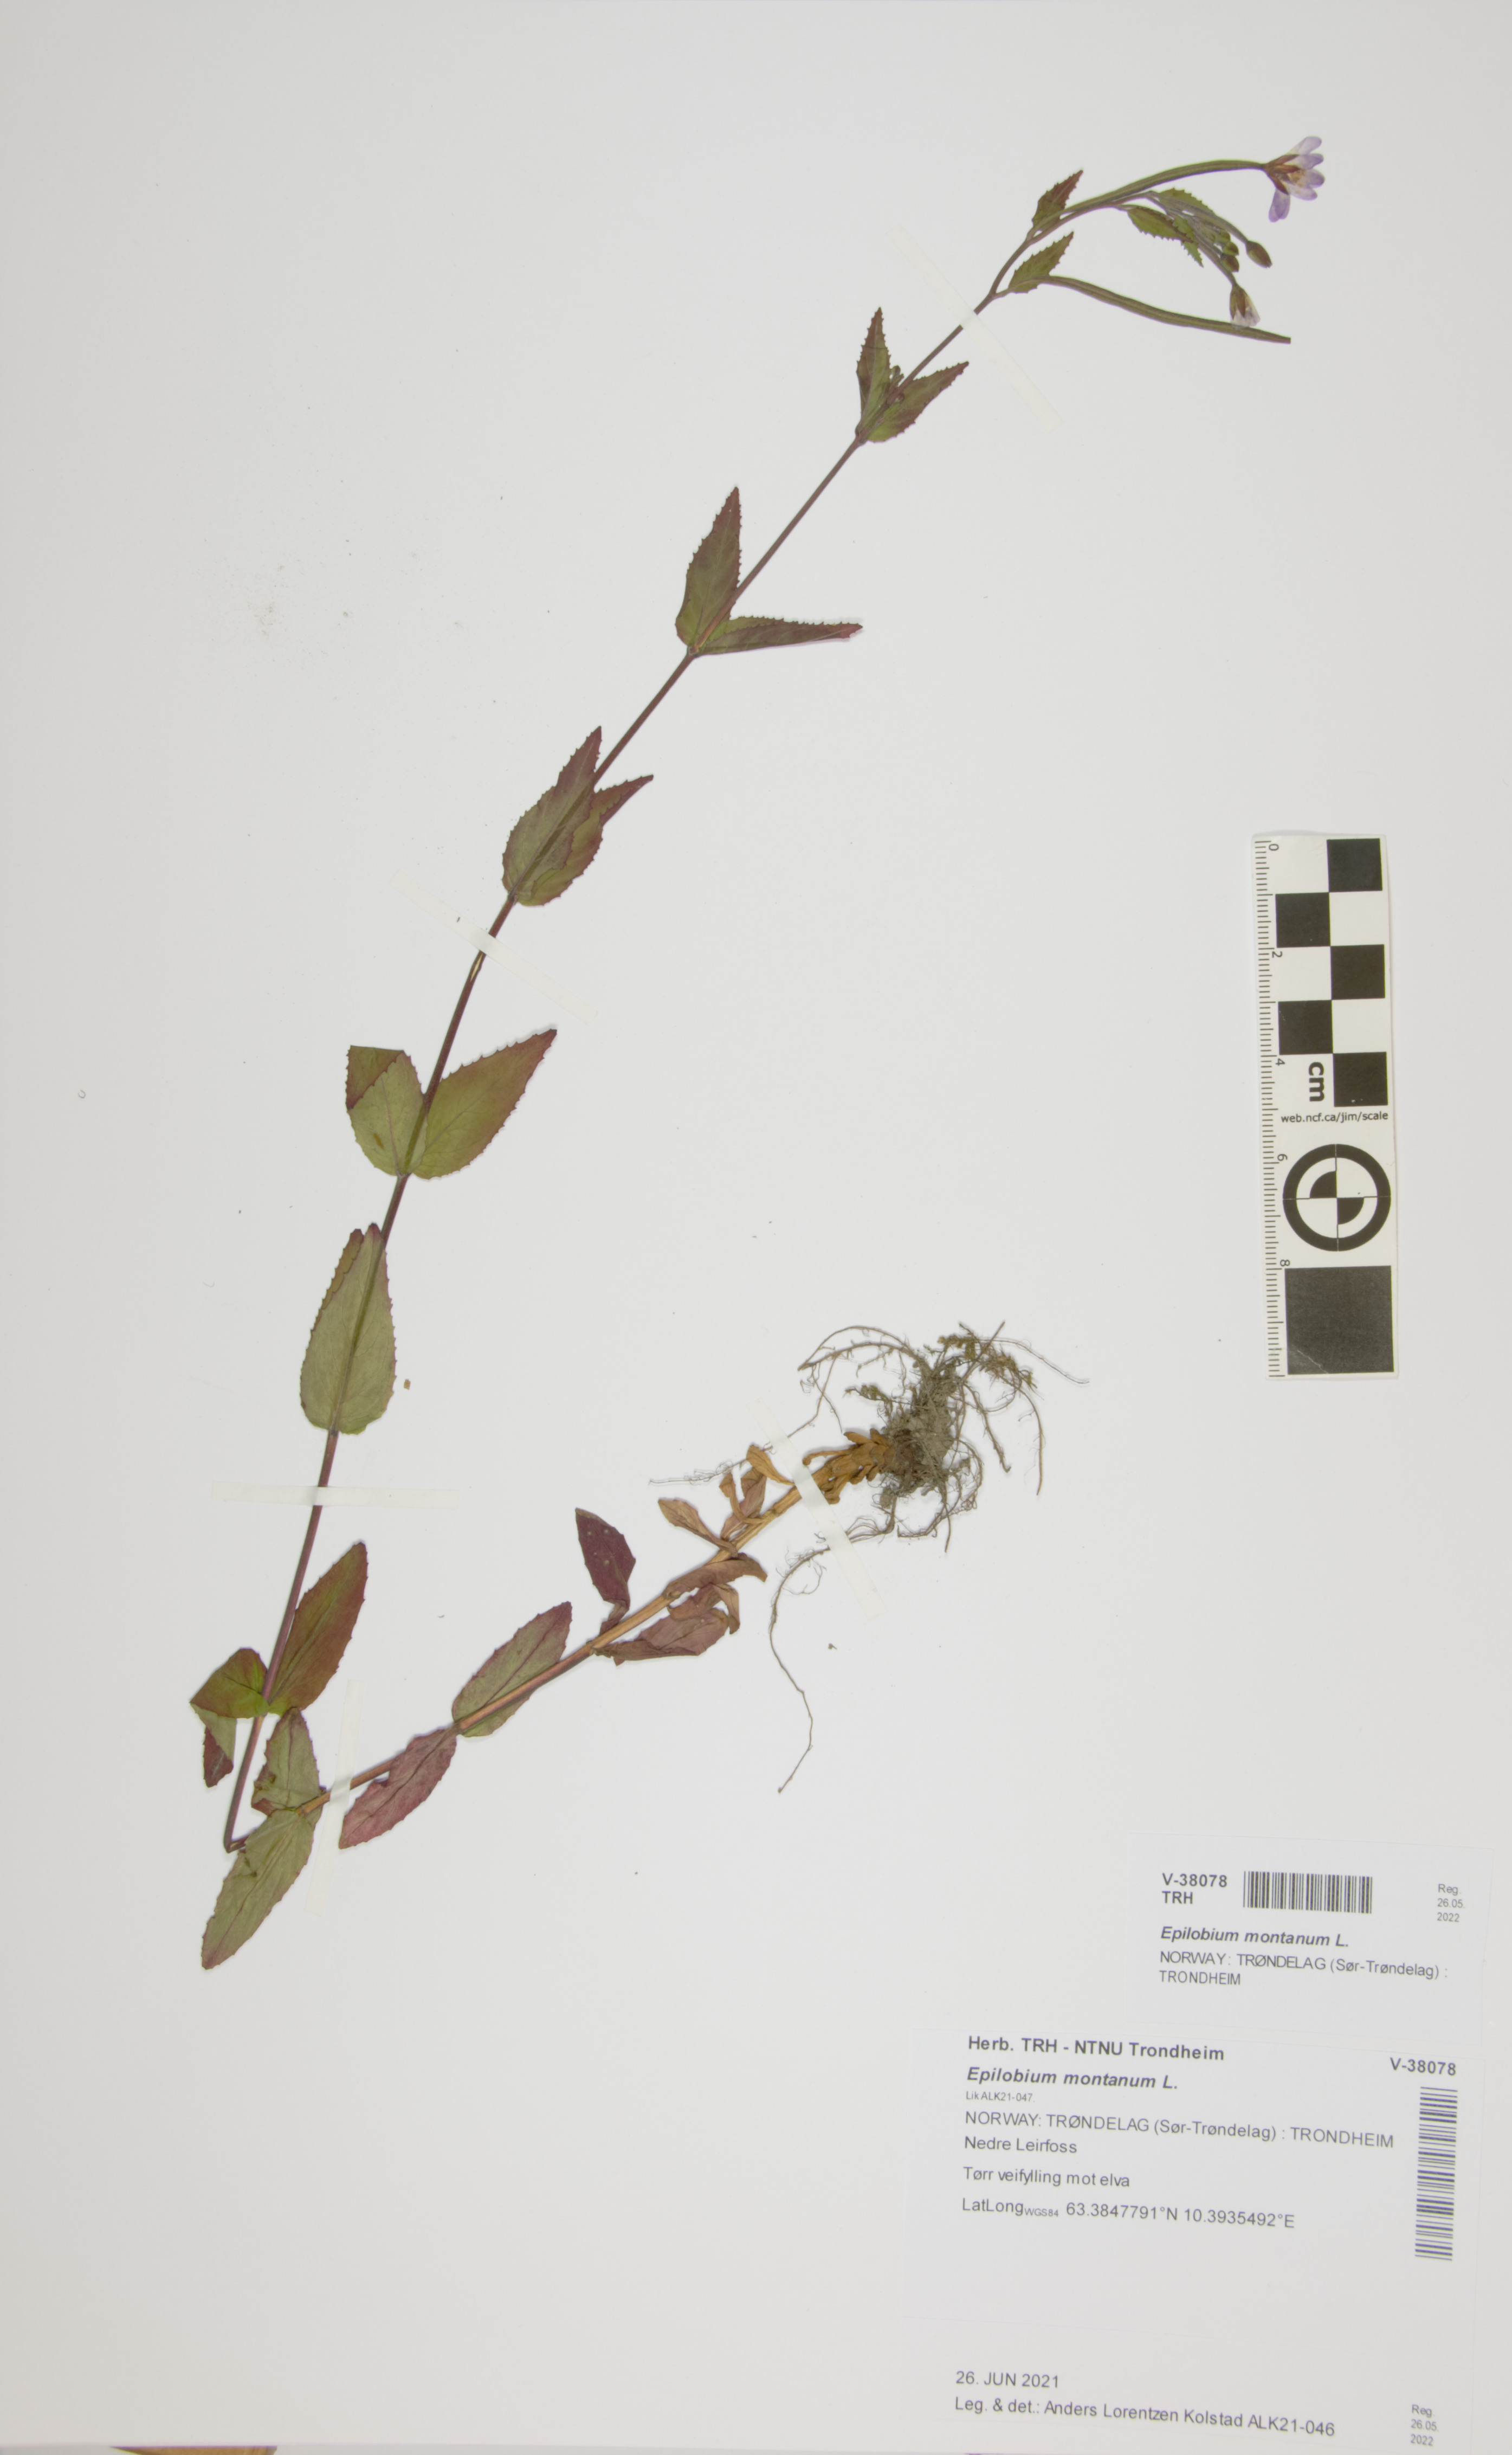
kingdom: Plantae
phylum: Tracheophyta
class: Magnoliopsida
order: Myrtales
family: Onagraceae
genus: Epilobium
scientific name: Epilobium montanum
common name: Broad-leaved willowherb
